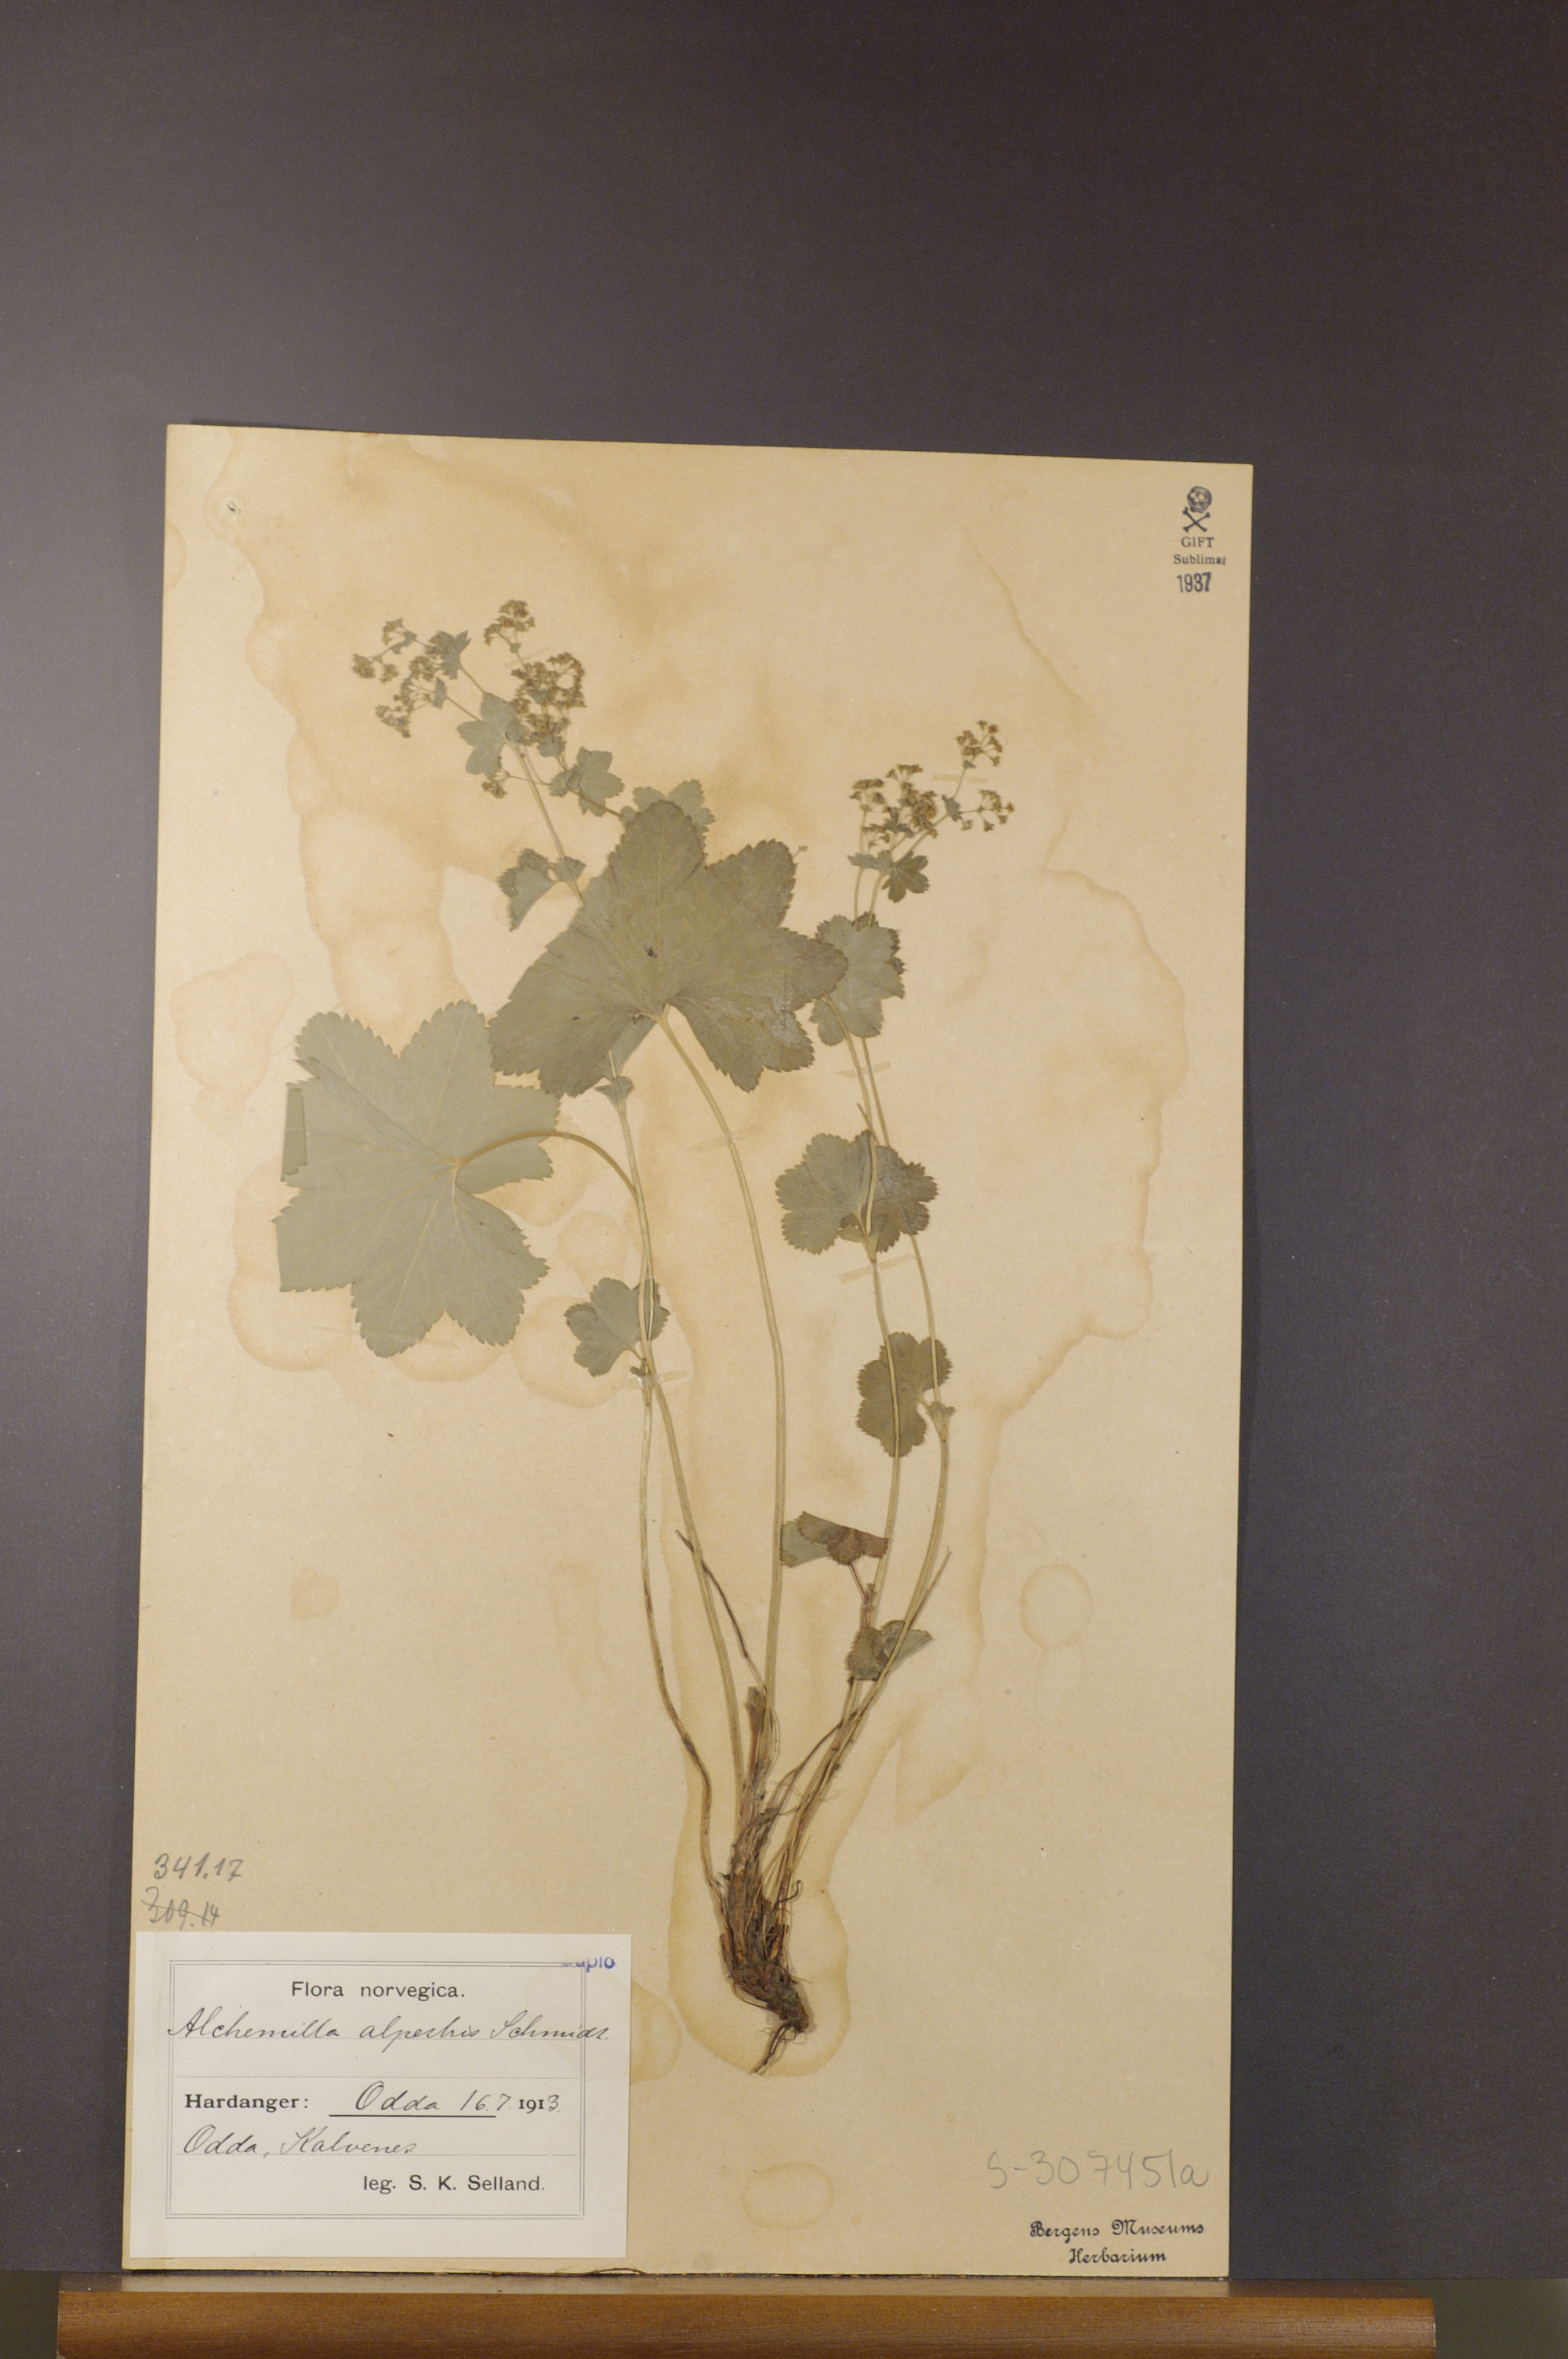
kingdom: Plantae
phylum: Tracheophyta
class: Magnoliopsida
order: Rosales
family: Rosaceae
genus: Alchemilla
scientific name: Alchemilla glabra
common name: Smooth lady's-mantle
